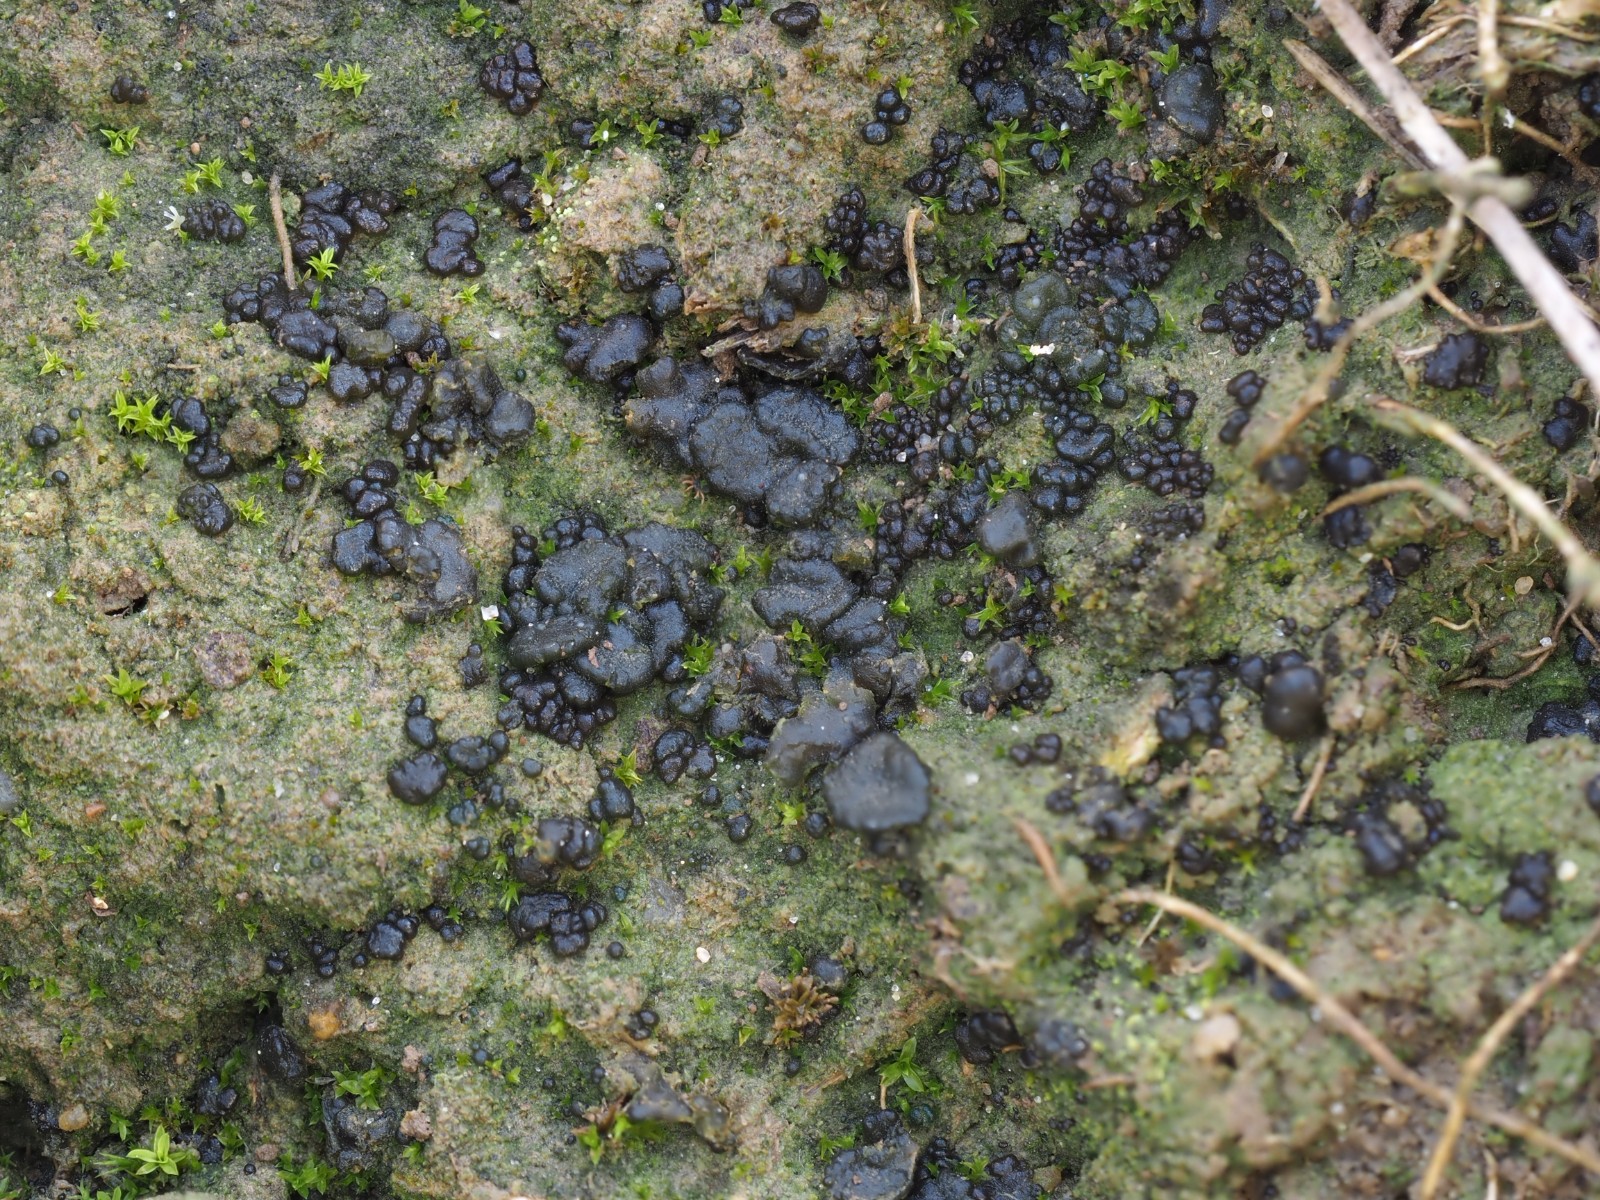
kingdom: Fungi
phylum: Ascomycota
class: Lecanoromycetes
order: Peltigerales
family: Collemataceae
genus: Enchylium
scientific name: Enchylium
